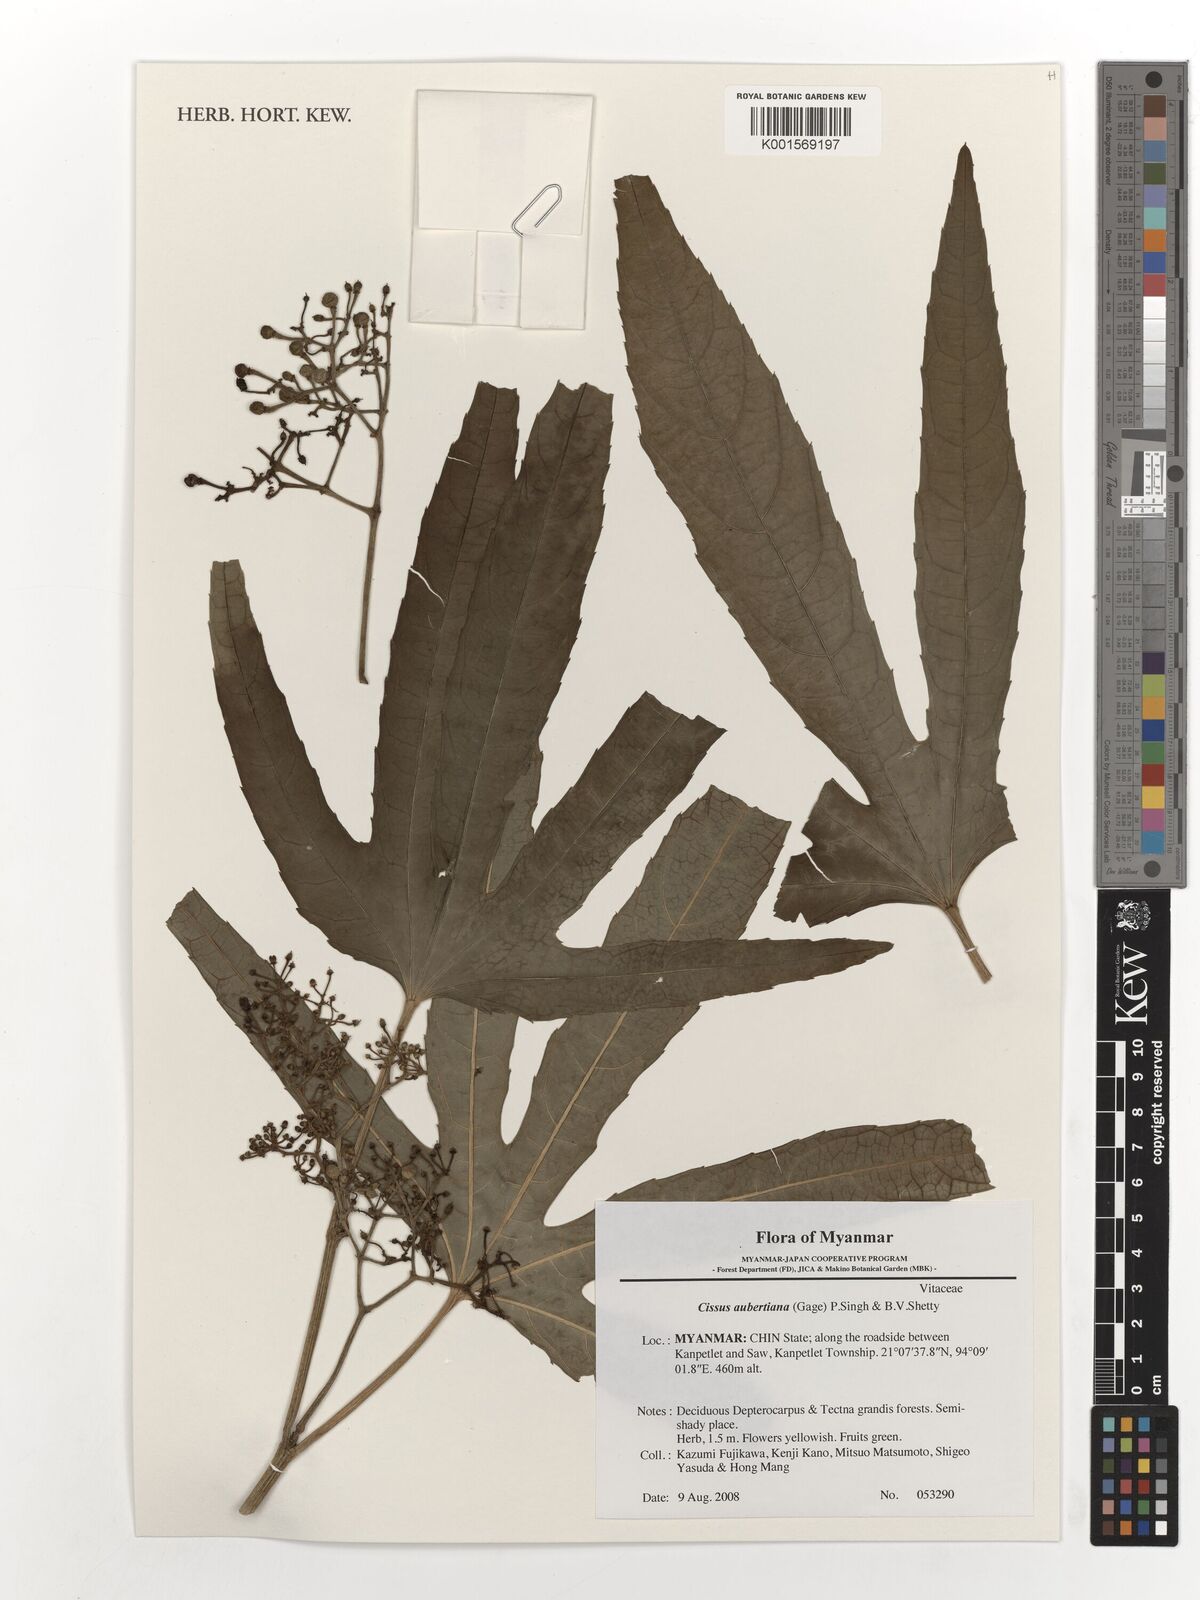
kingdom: Plantae
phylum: Tracheophyta
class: Magnoliopsida
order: Vitales
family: Vitaceae
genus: Cissus
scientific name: Cissus aubertiana
